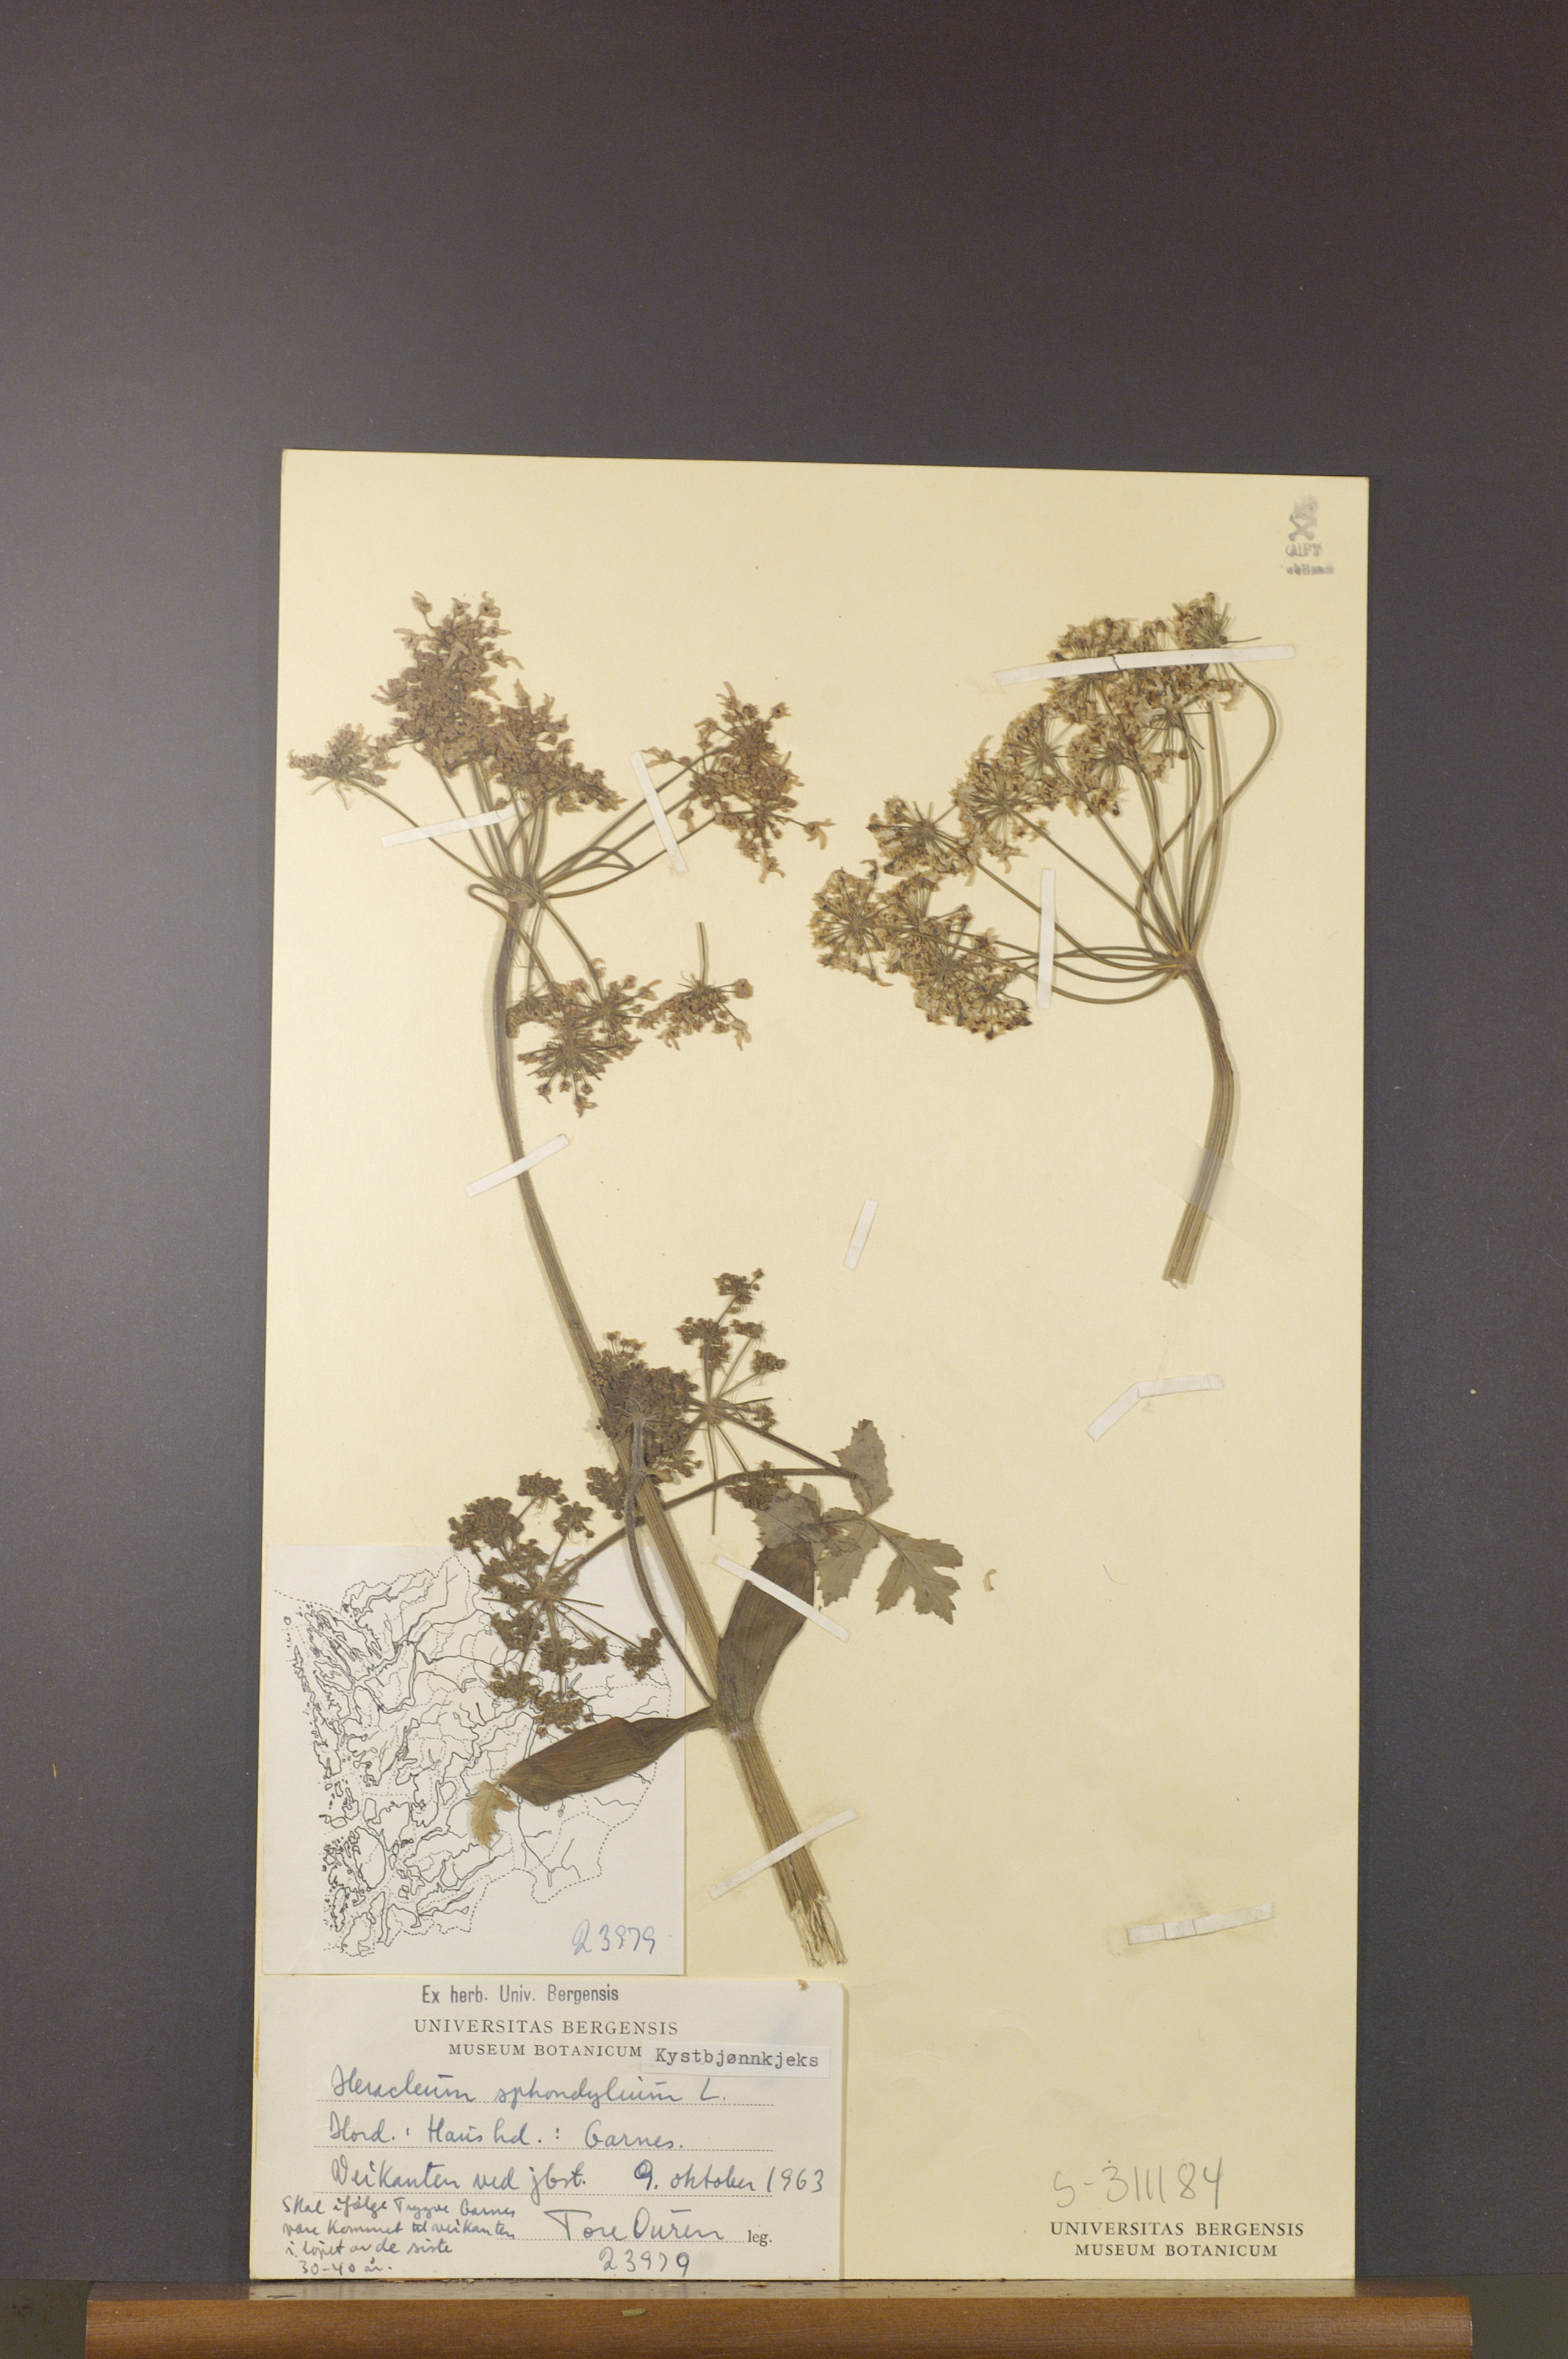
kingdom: Plantae
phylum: Tracheophyta
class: Magnoliopsida
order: Apiales
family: Apiaceae
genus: Heracleum
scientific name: Heracleum sphondylium
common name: Hogweed
